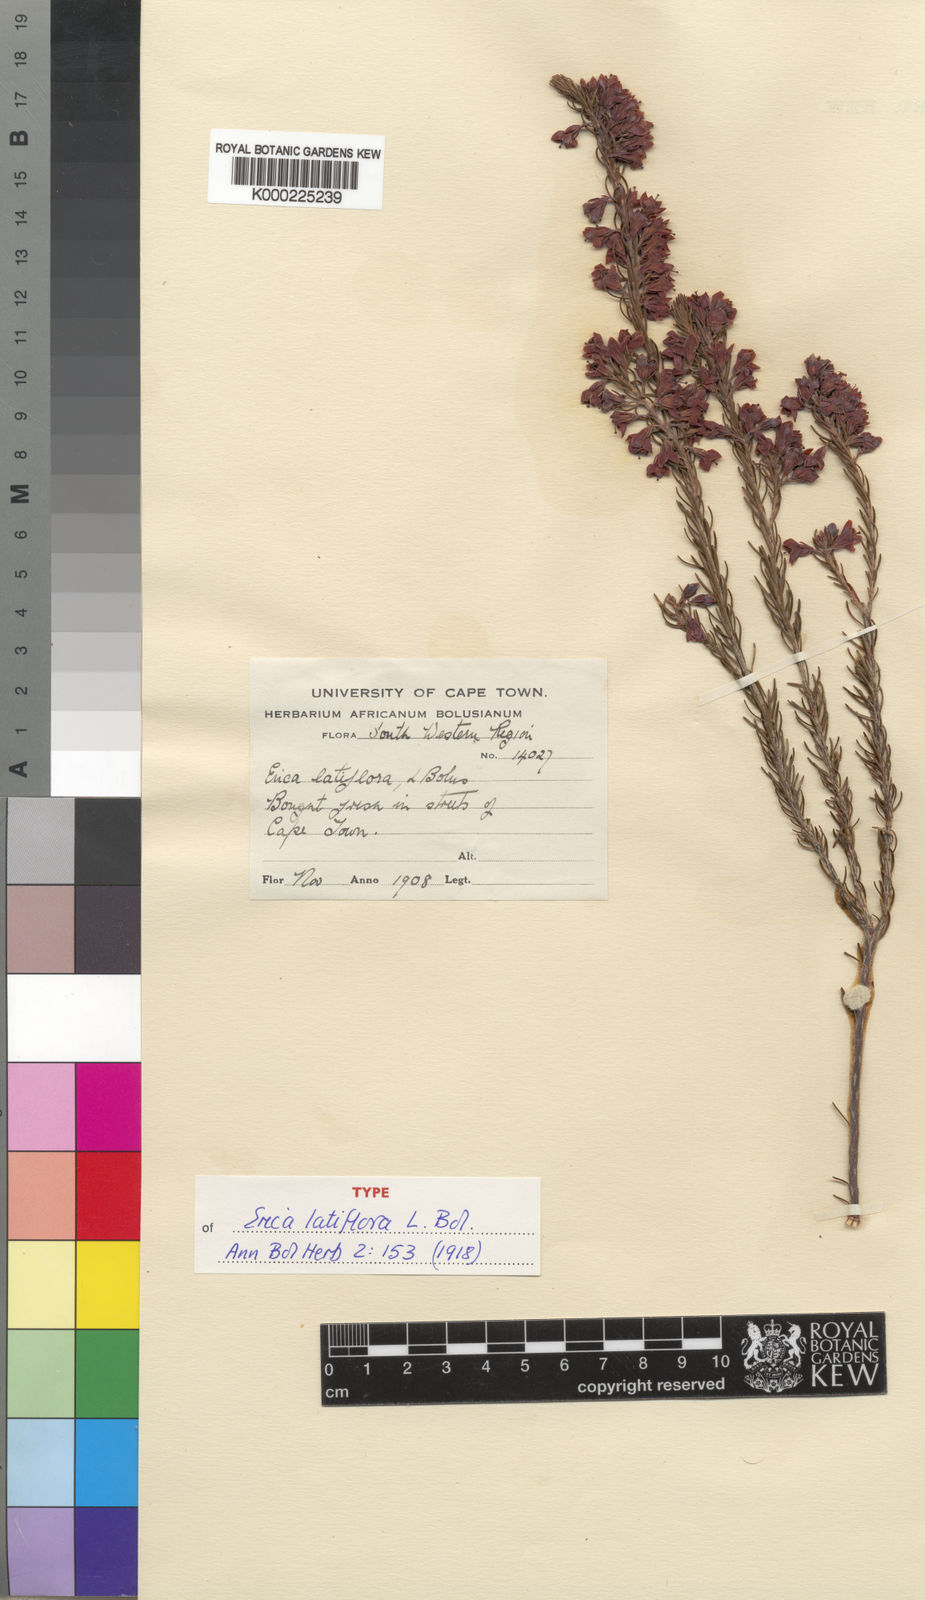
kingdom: Plantae
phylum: Tracheophyta
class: Magnoliopsida
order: Ericales
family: Ericaceae
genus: Erica
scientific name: Erica latiflora
